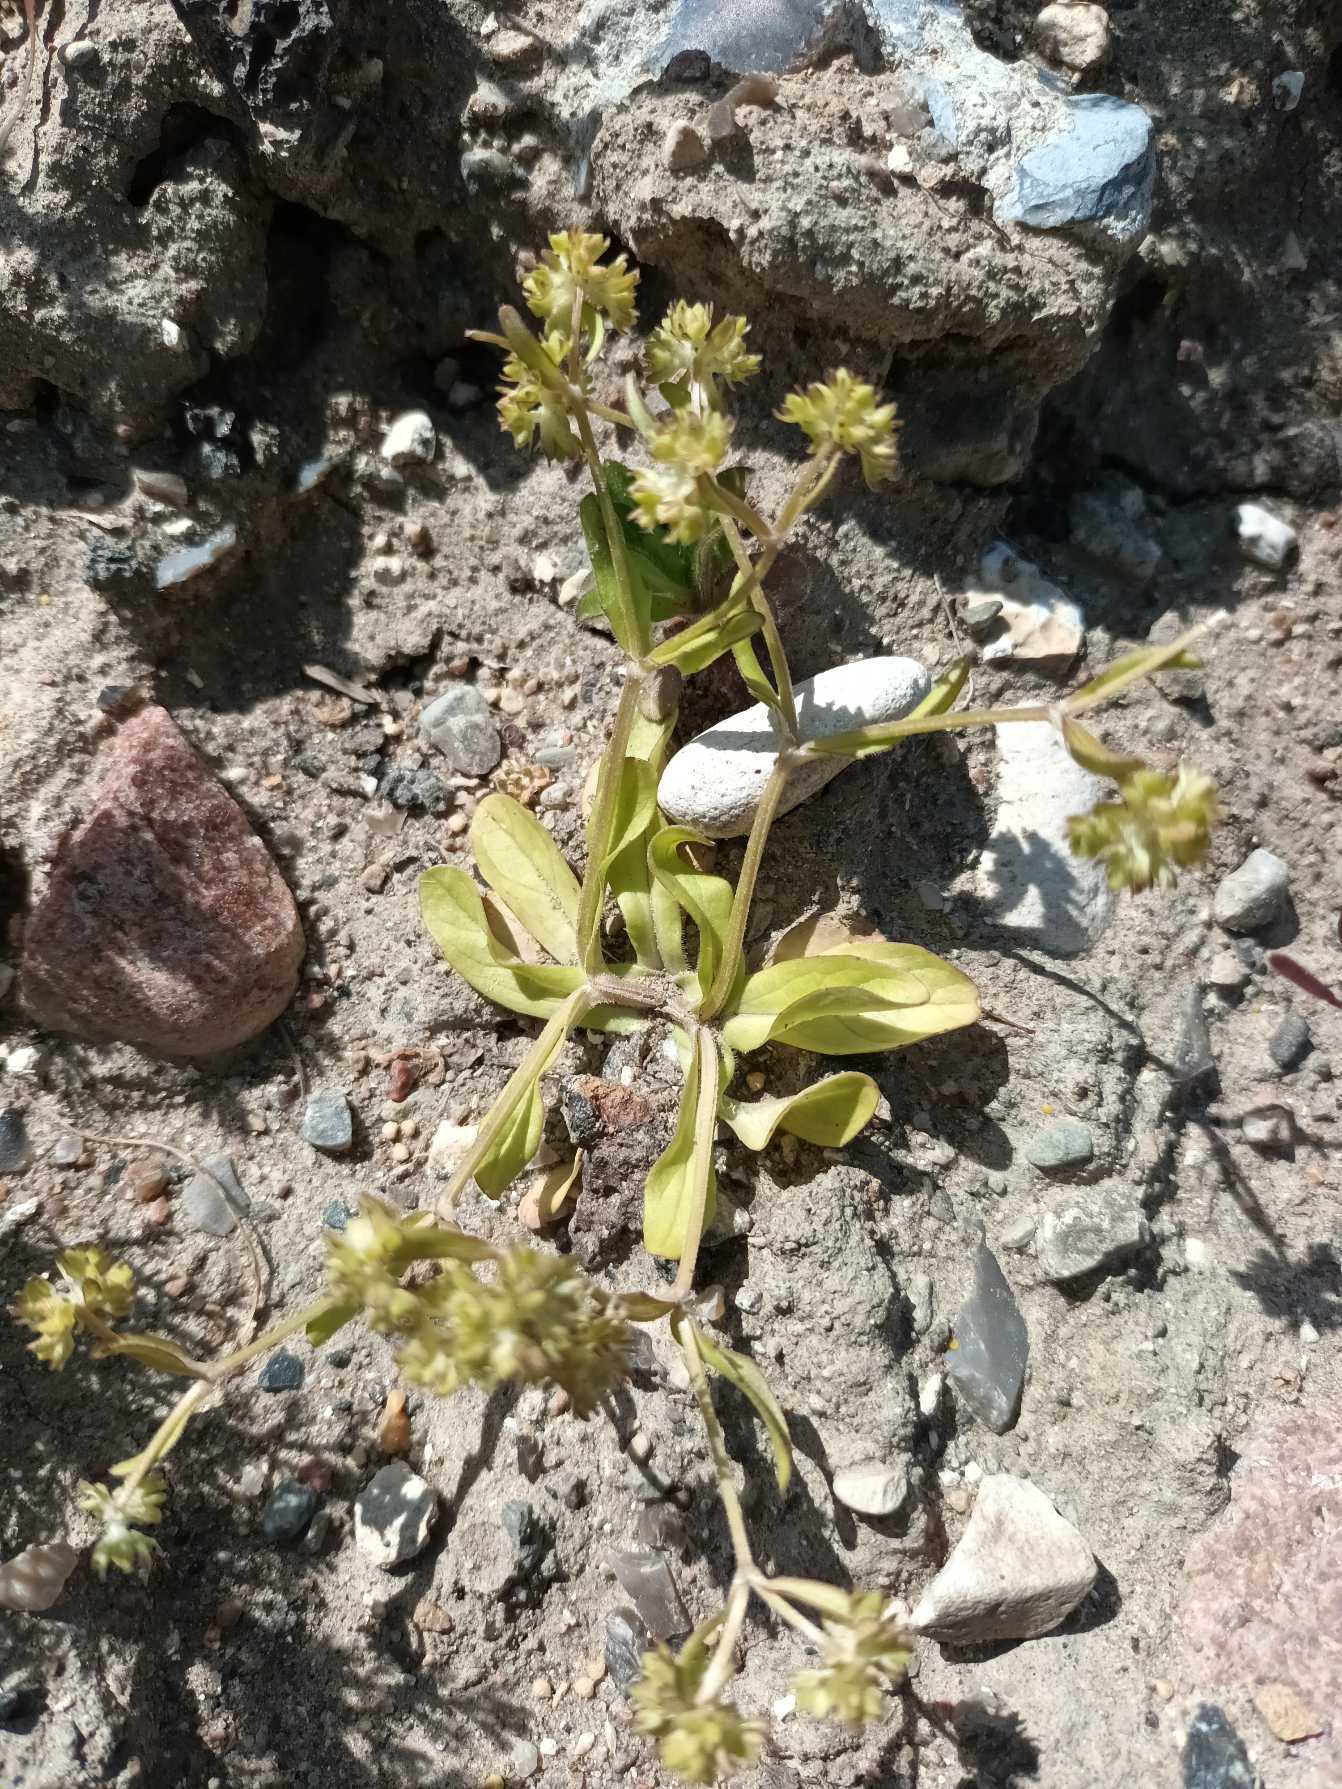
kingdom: Plantae
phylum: Tracheophyta
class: Magnoliopsida
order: Dipsacales
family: Caprifoliaceae
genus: Valerianella
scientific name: Valerianella locusta
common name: Tandfri vårsalat
